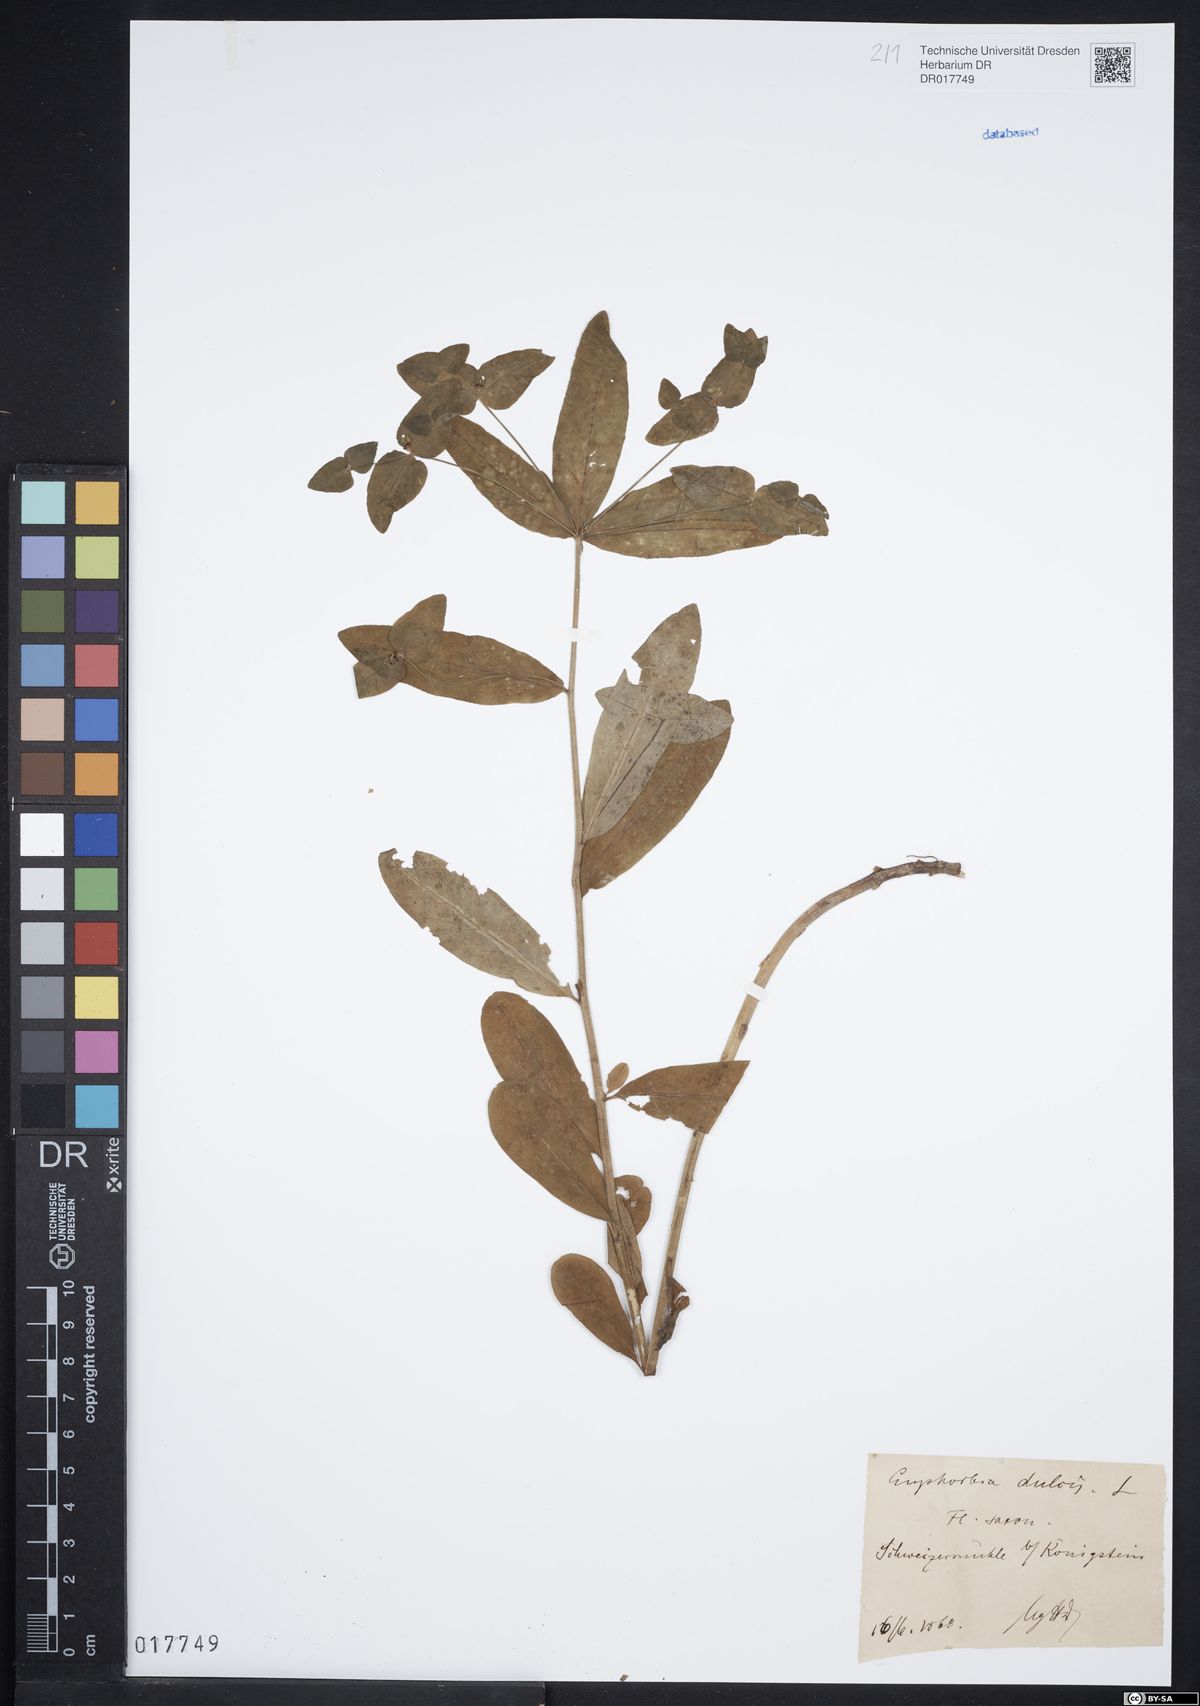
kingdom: Plantae
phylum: Tracheophyta
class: Magnoliopsida
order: Malpighiales
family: Euphorbiaceae
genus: Euphorbia
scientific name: Euphorbia dulcis
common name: Sweet spurge
